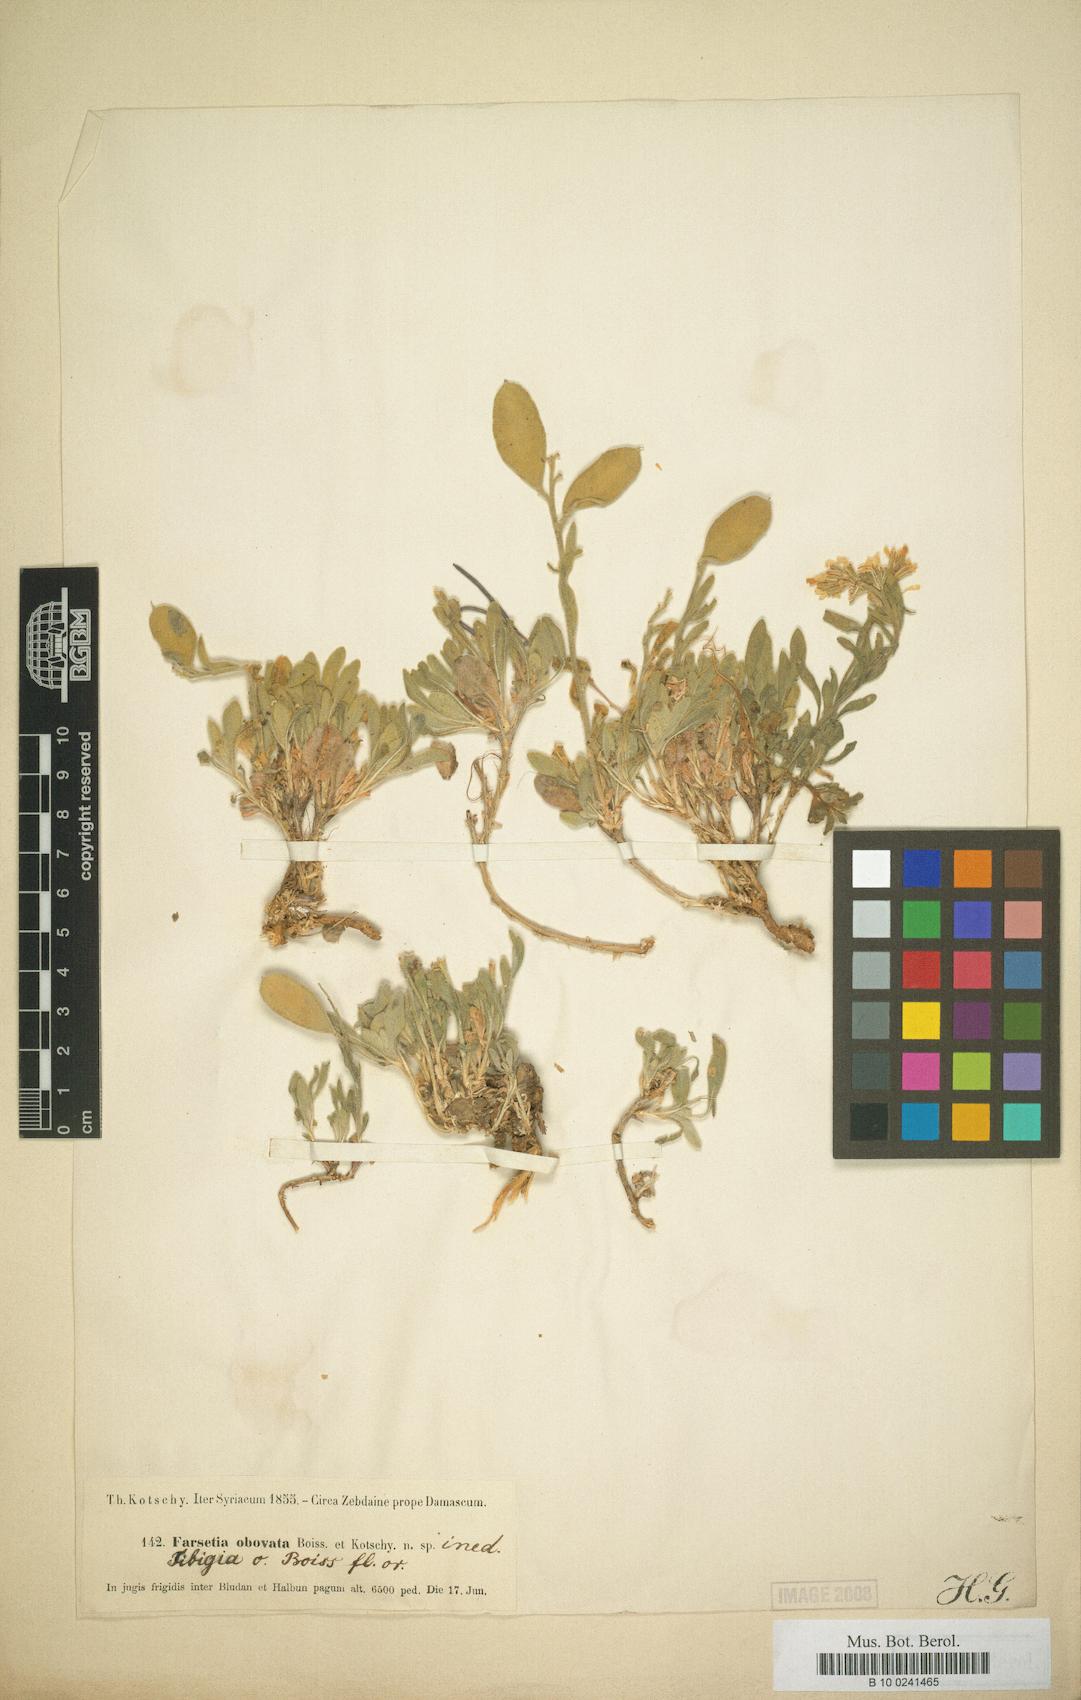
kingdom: Plantae
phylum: Tracheophyta
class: Magnoliopsida
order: Brassicales
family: Brassicaceae
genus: Acuston
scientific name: Acuston petalodes
